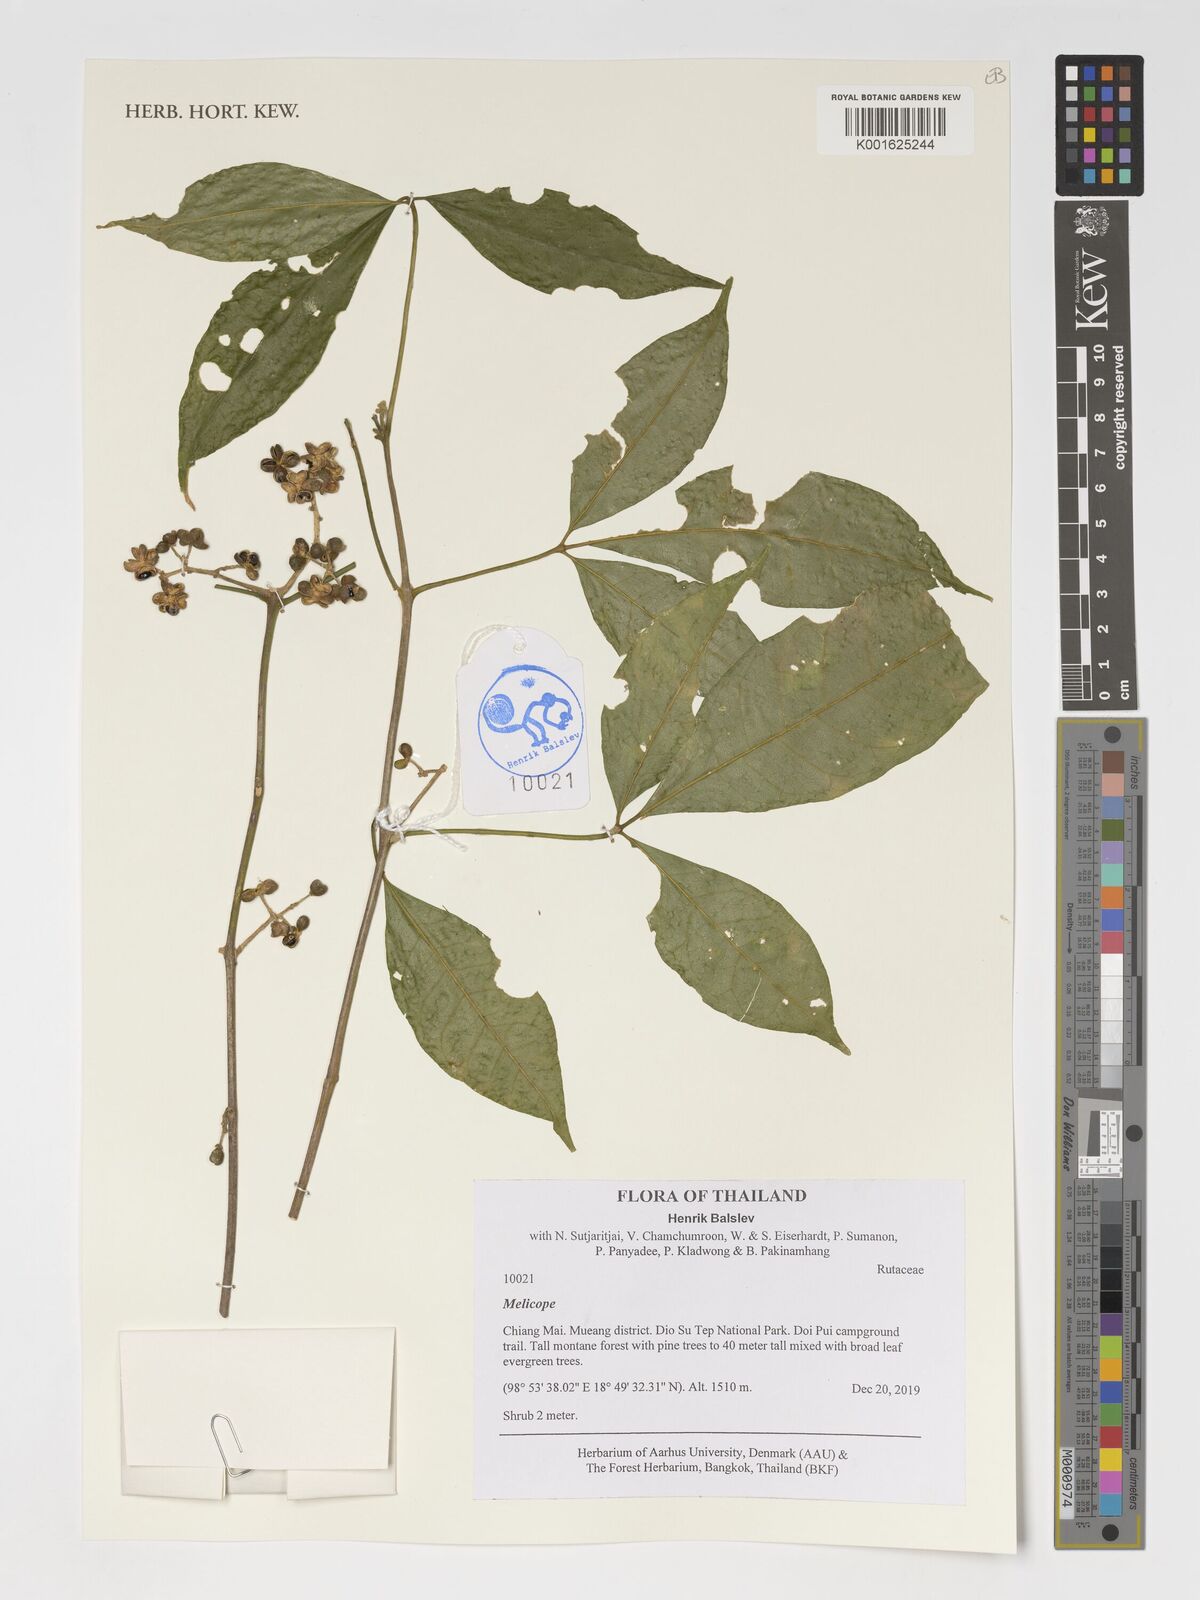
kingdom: Plantae
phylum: Tracheophyta
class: Magnoliopsida
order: Sapindales
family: Rutaceae
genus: Melicope
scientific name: Melicope
